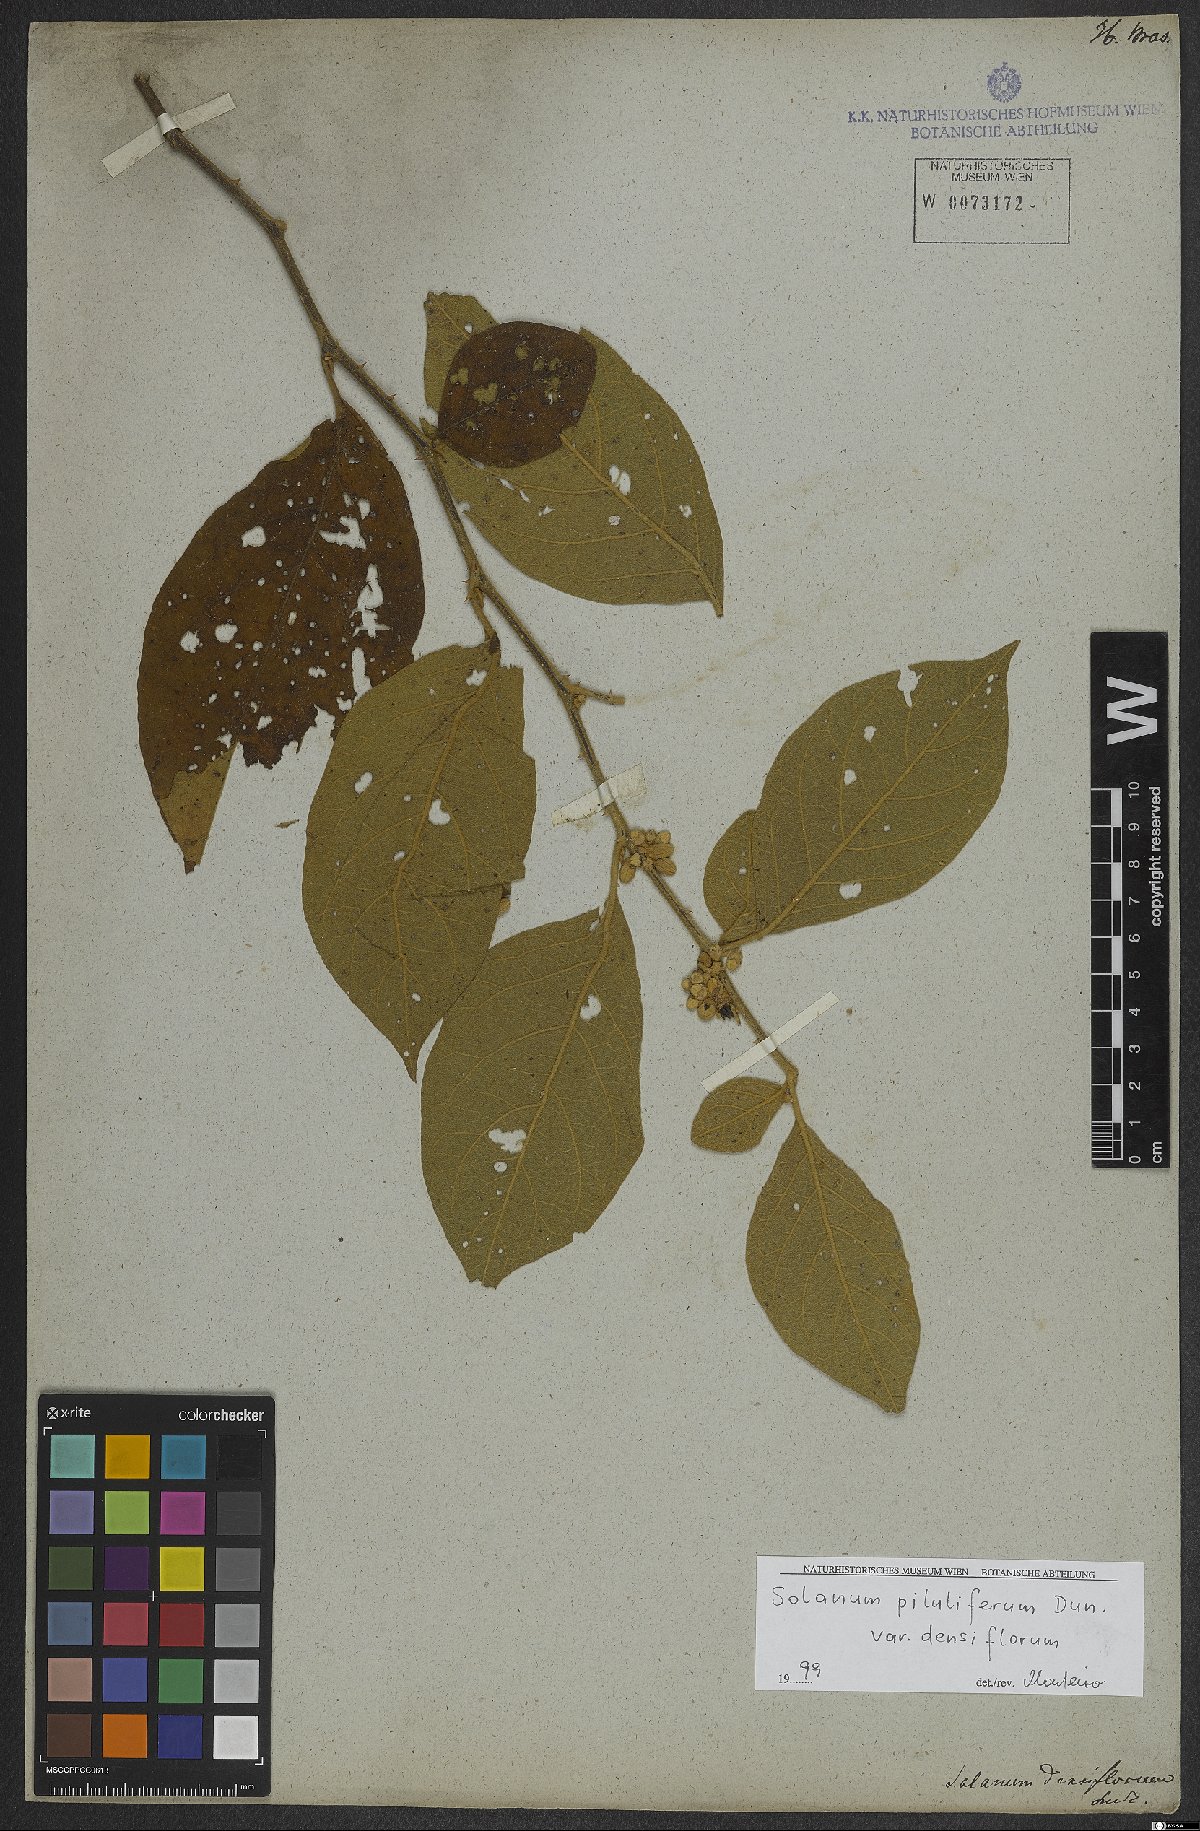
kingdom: Plantae
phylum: Tracheophyta
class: Magnoliopsida
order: Solanales
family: Solanaceae
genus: Solanum
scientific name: Solanum piluliferum
